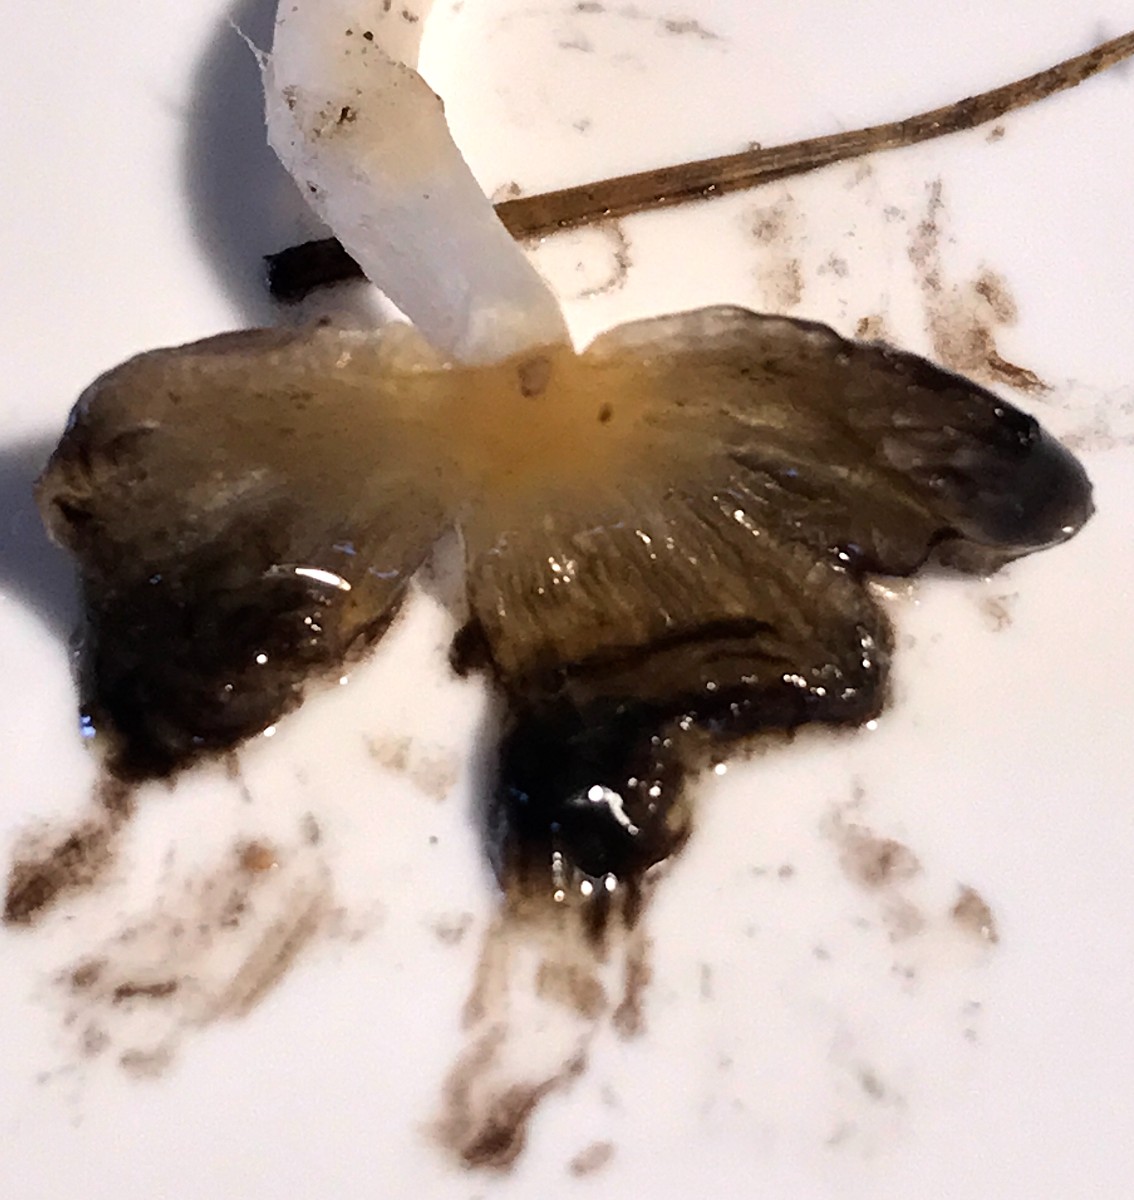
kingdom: Fungi
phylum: Basidiomycota
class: Agaricomycetes
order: Agaricales
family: Psathyrellaceae
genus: Coprinellus
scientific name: Coprinellus
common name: blækhat
